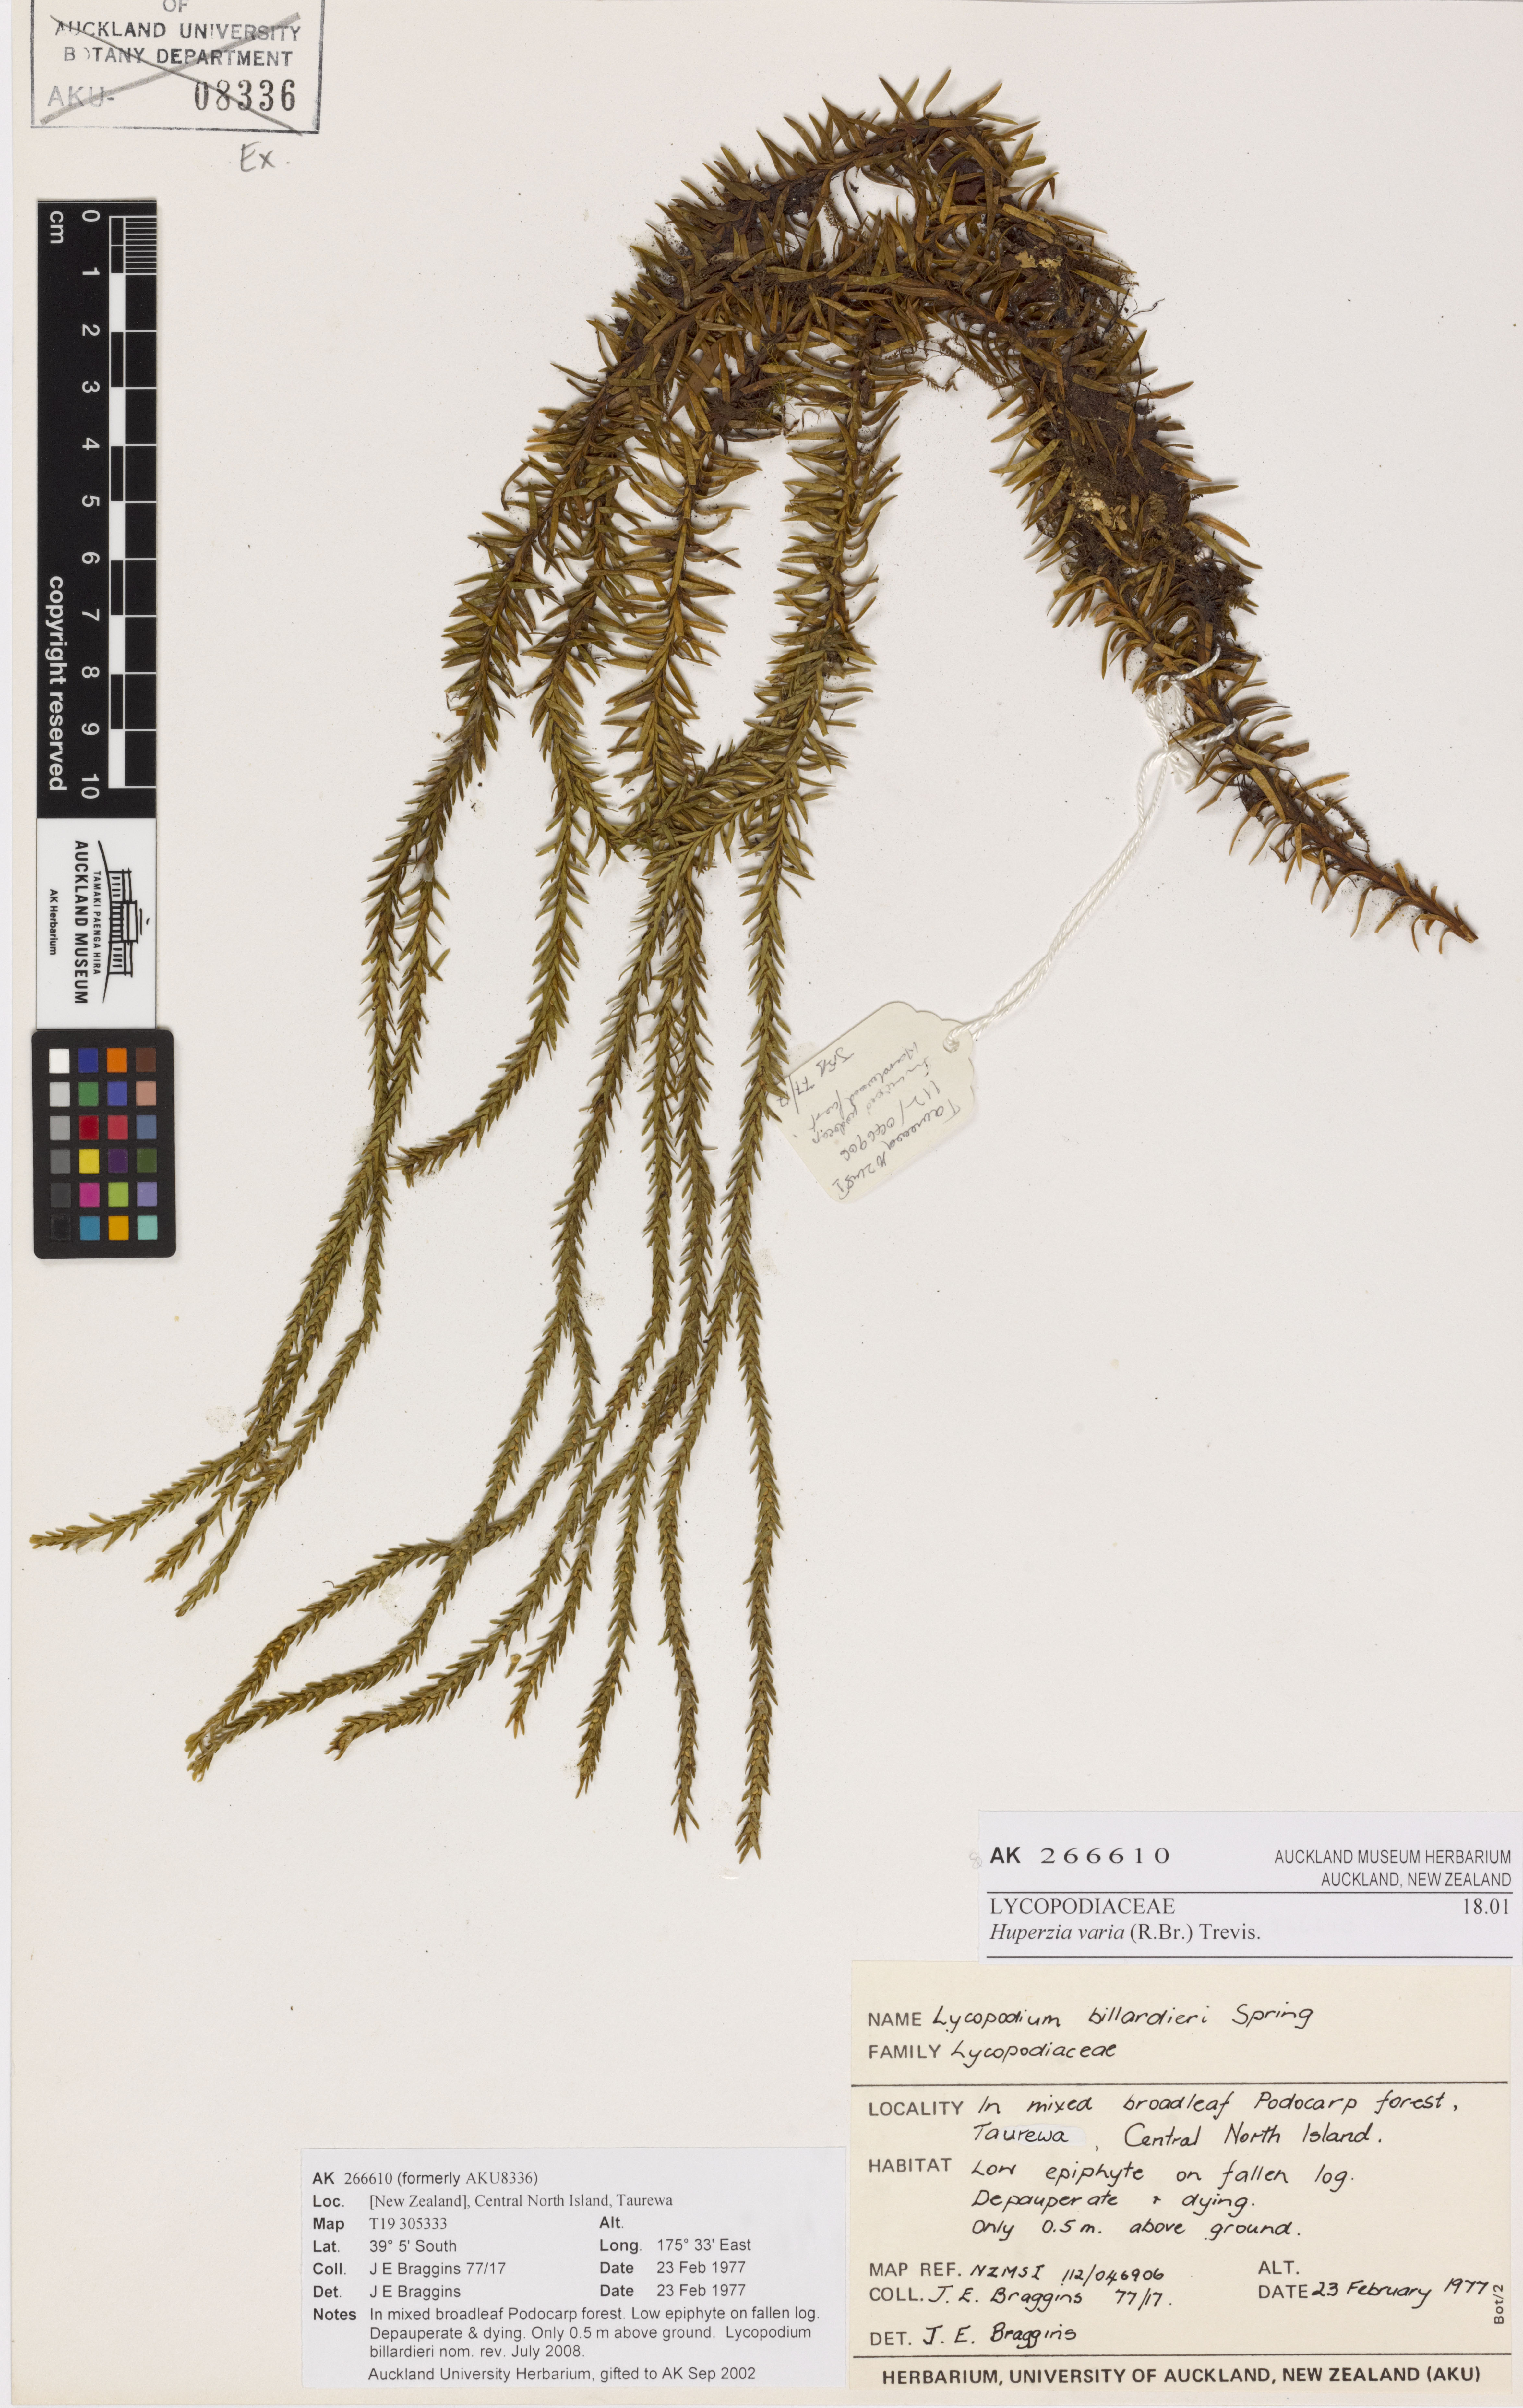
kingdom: Plantae
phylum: Tracheophyta
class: Lycopodiopsida
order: Lycopodiales
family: Lycopodiaceae
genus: Phlegmariurus
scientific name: Phlegmariurus varius
